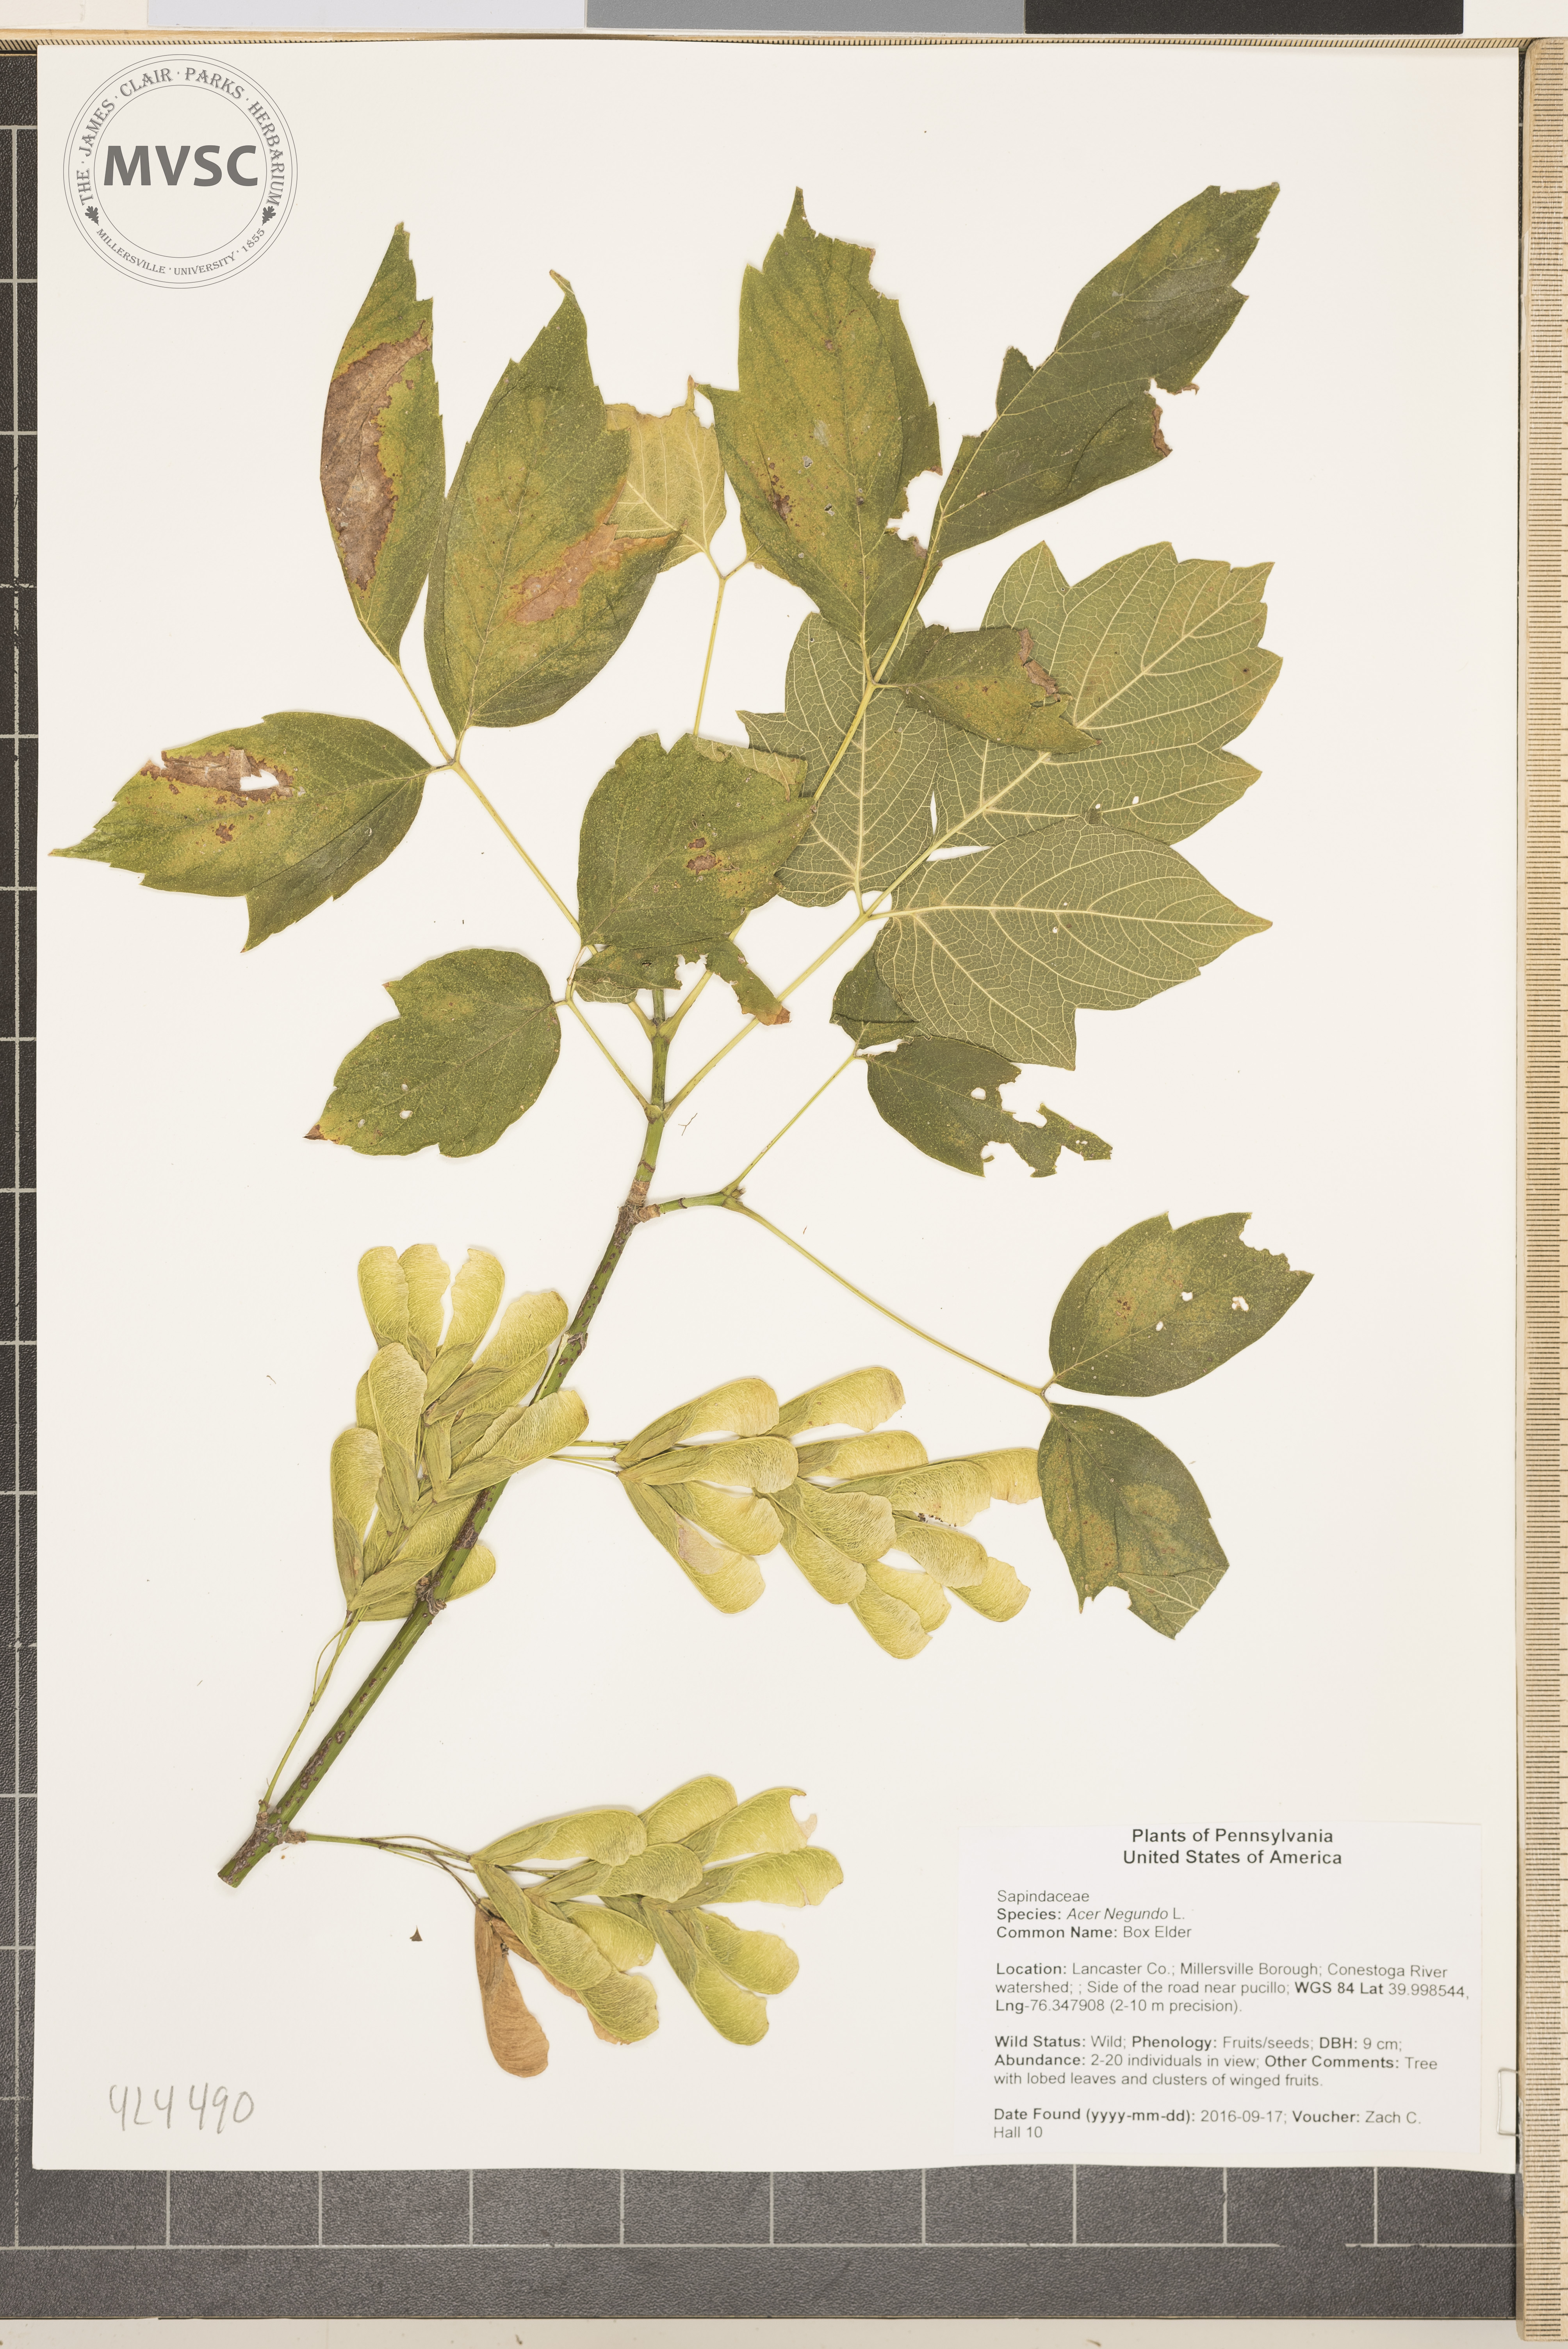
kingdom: Plantae
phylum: Tracheophyta
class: Magnoliopsida
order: Sapindales
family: Sapindaceae
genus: Acer
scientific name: Acer negundo
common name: Box Elder
